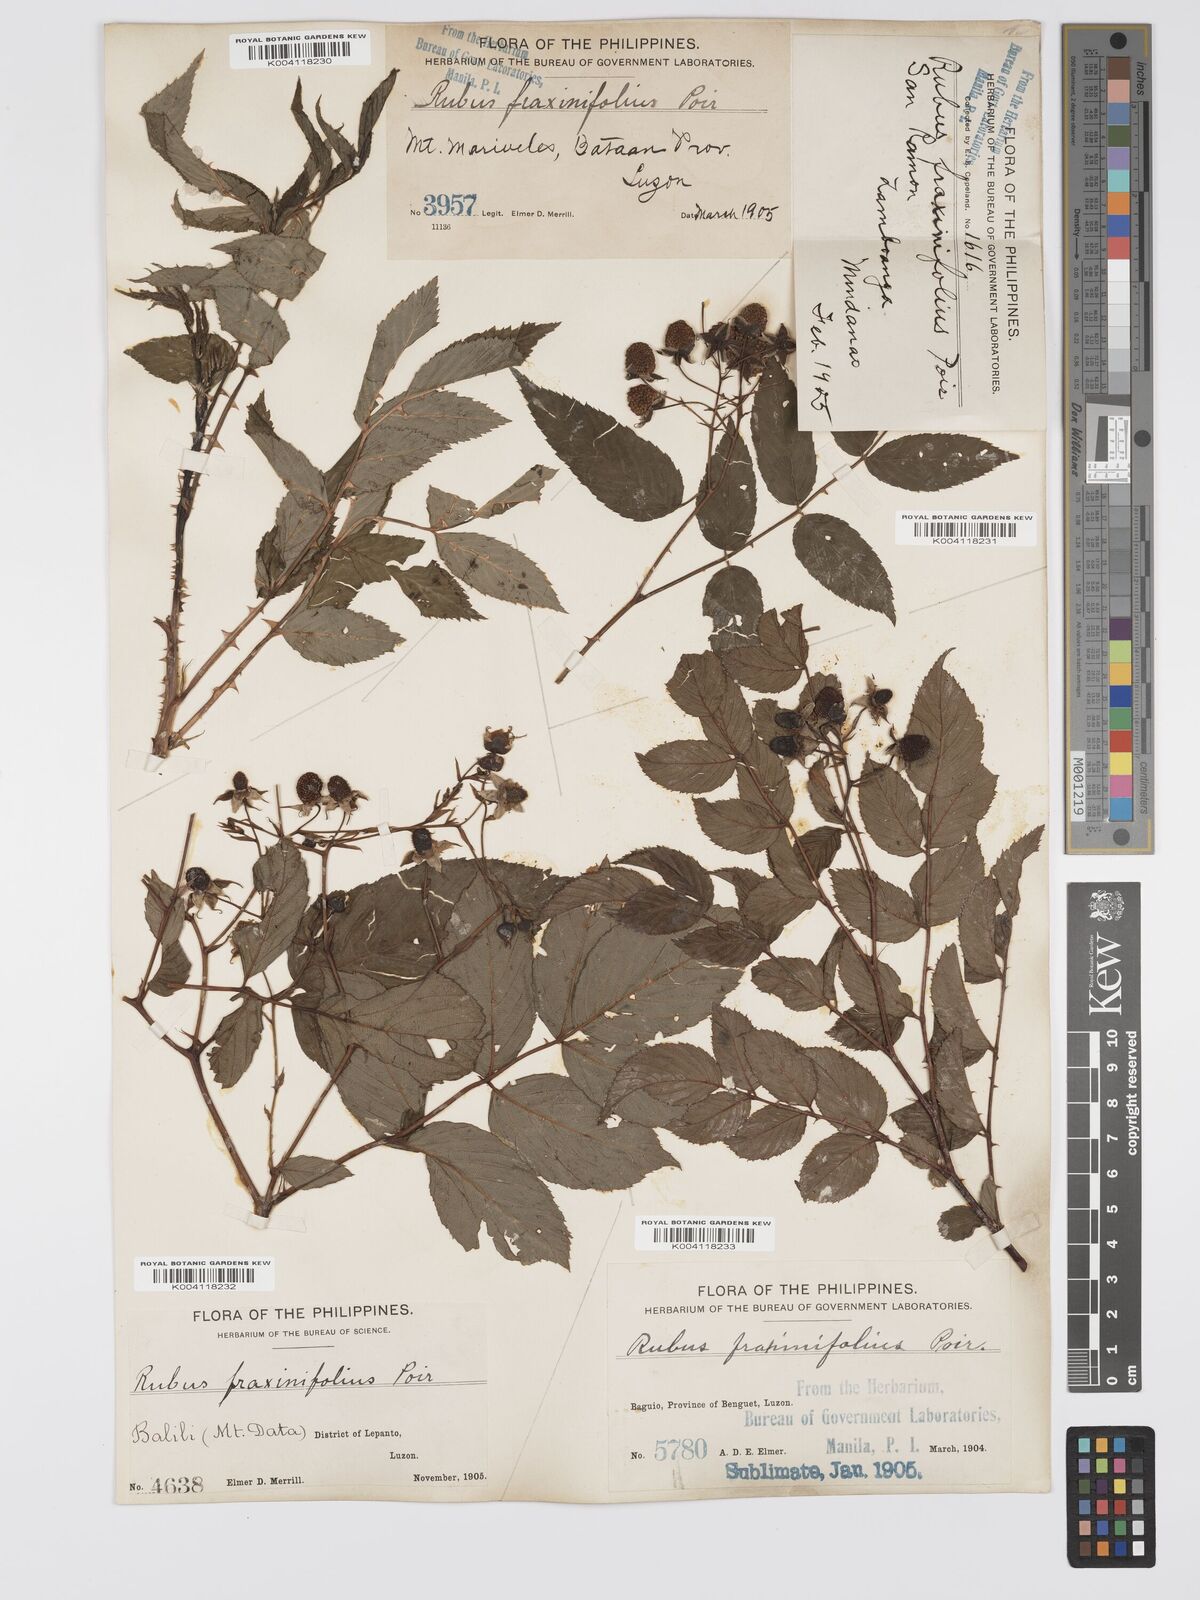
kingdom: Plantae
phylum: Tracheophyta
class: Magnoliopsida
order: Rosales
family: Rosaceae
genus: Rubus
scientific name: Rubus fraxinifolius
